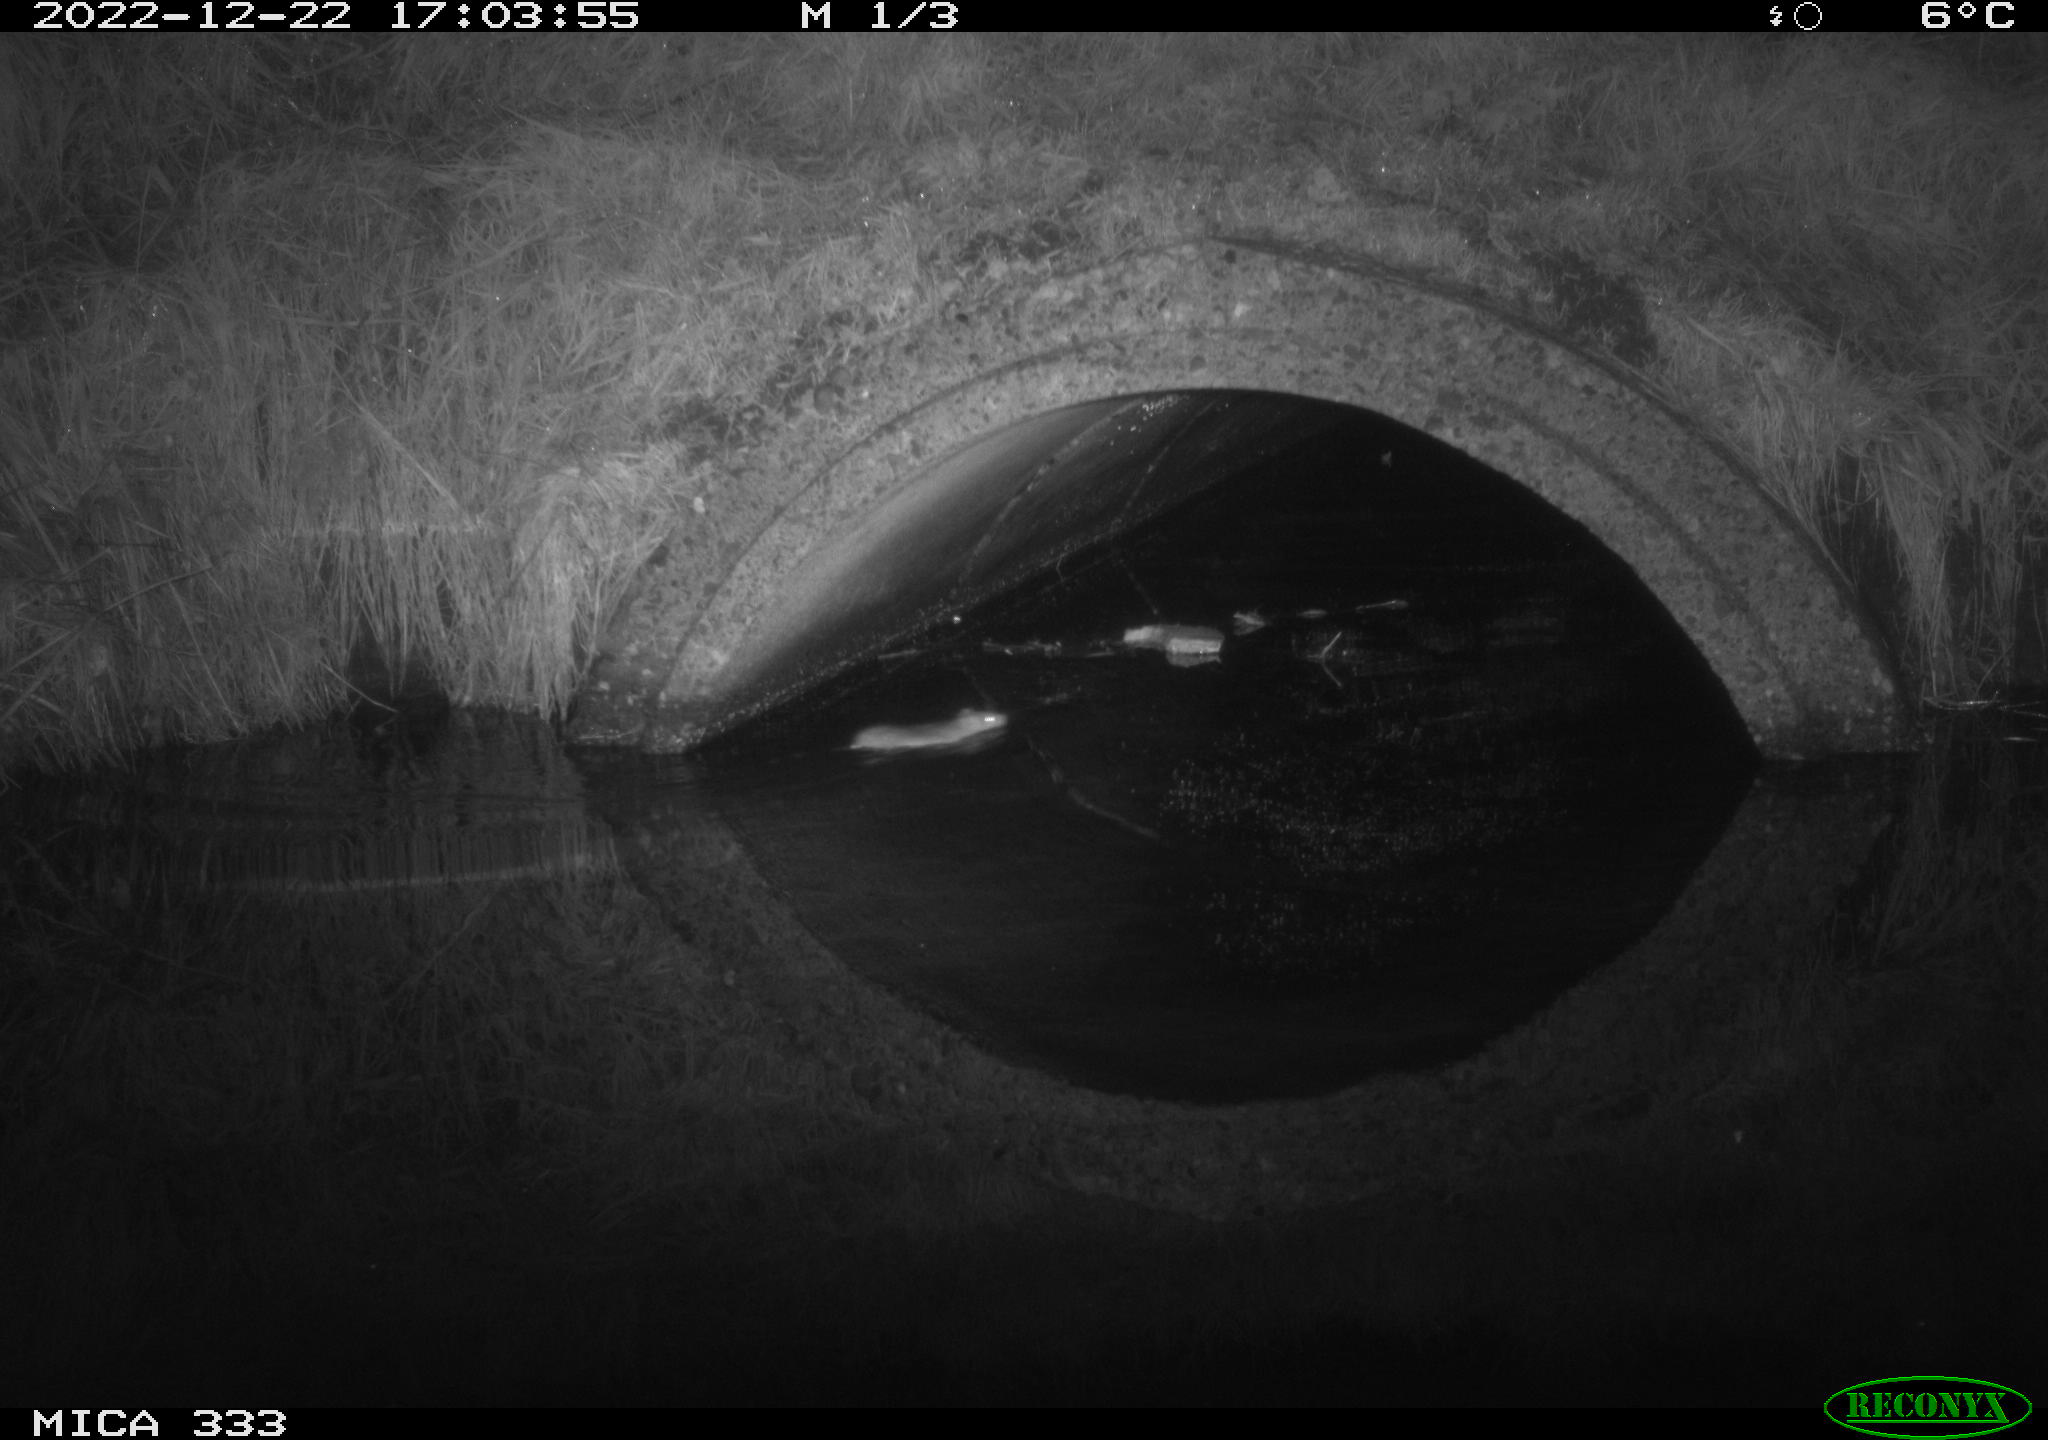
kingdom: Animalia
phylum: Chordata
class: Mammalia
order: Rodentia
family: Muridae
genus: Rattus
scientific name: Rattus norvegicus
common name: Brown rat
